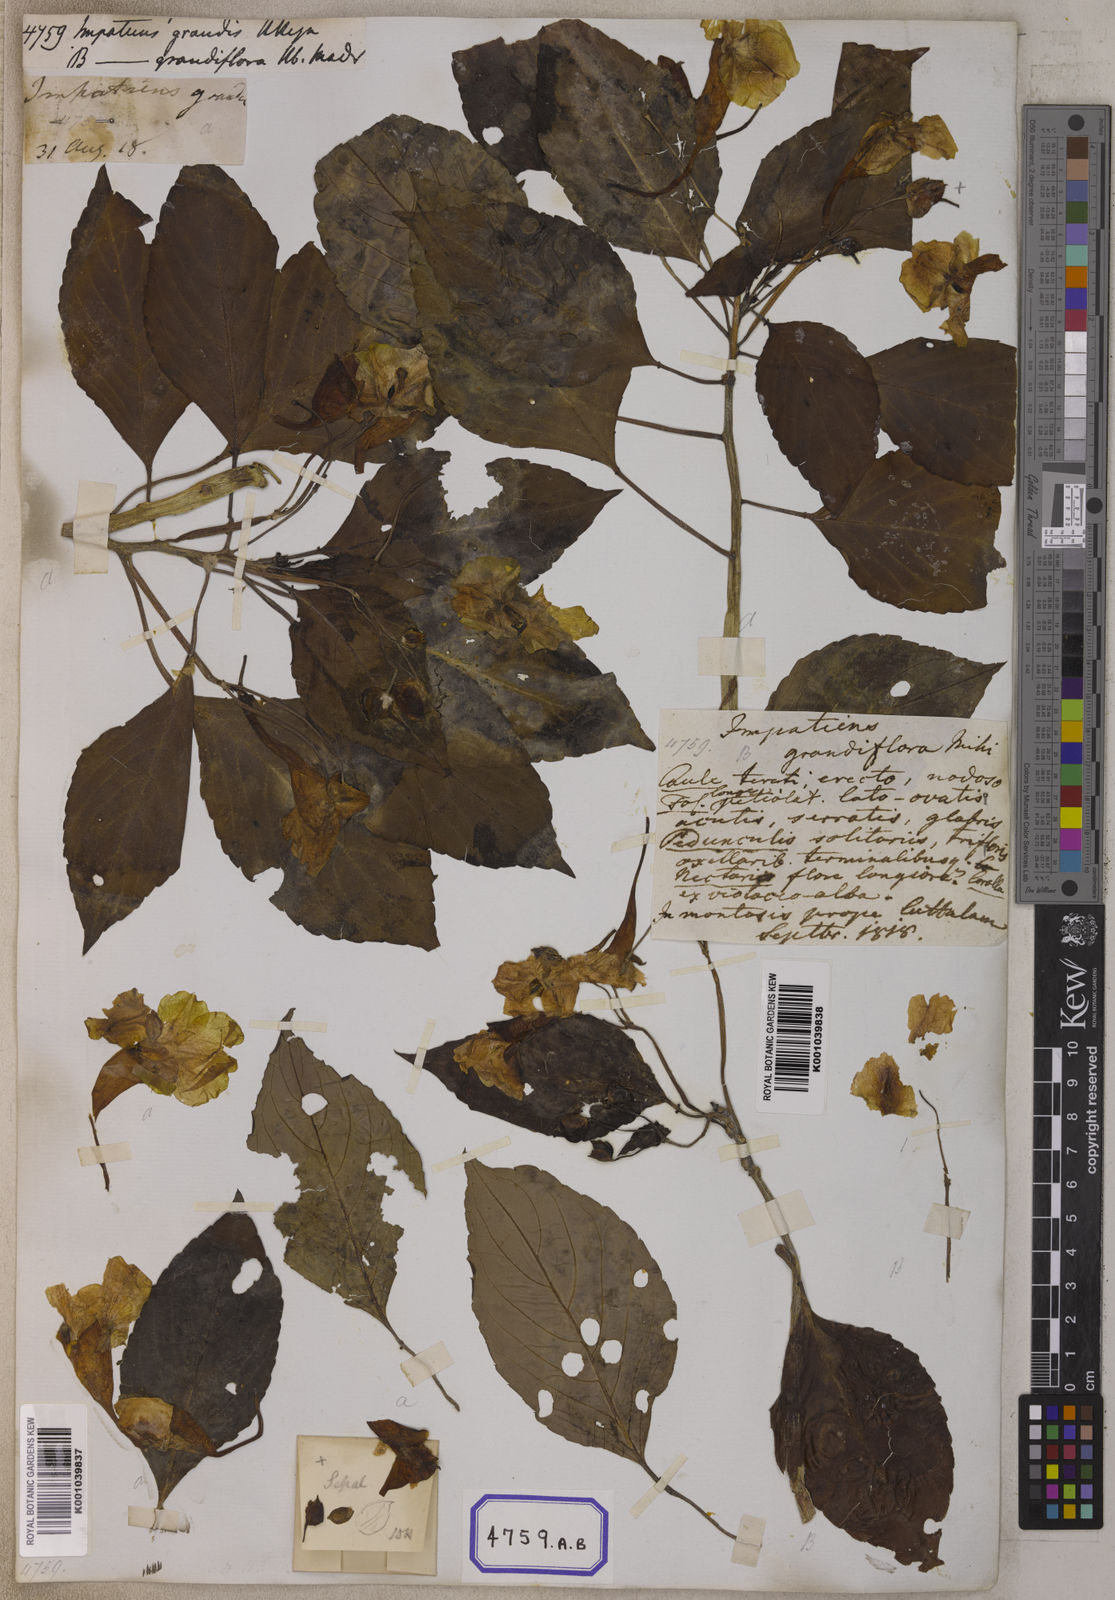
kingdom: Plantae
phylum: Tracheophyta
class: Magnoliopsida
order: Ericales
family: Balsaminaceae
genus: Impatiens
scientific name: Impatiens grandis
